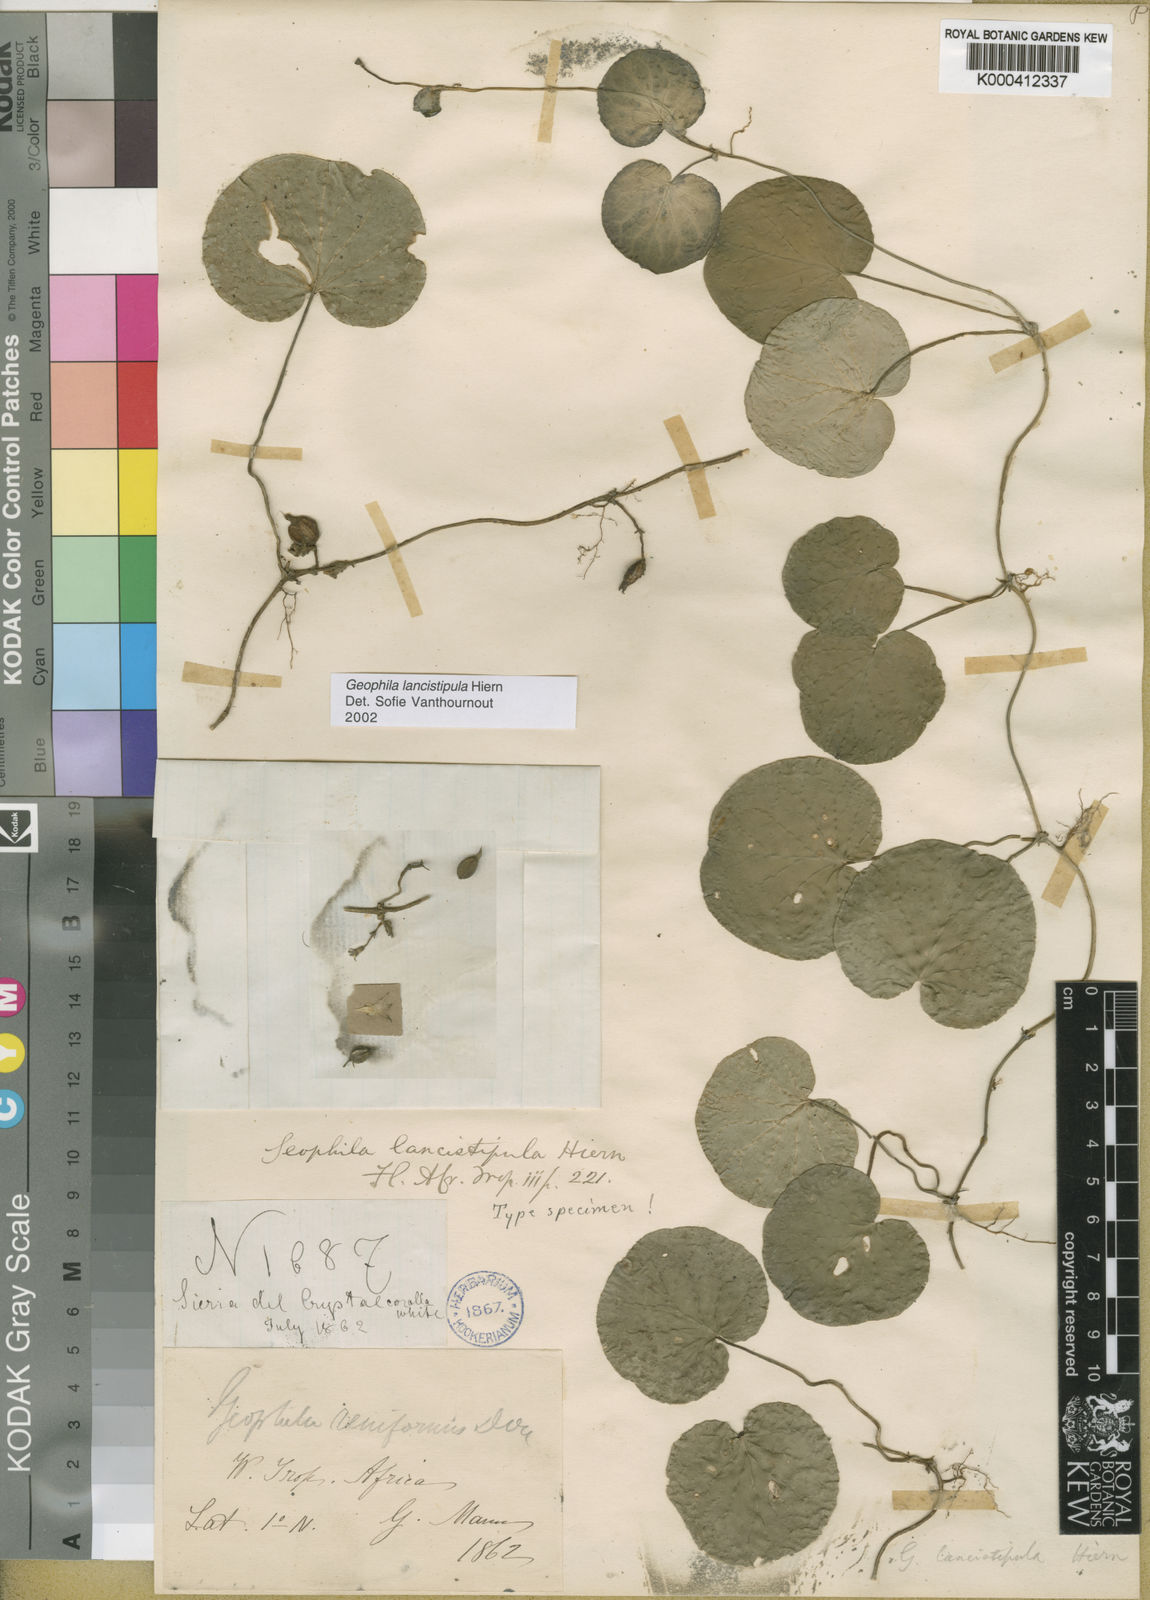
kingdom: Plantae
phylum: Tracheophyta
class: Magnoliopsida
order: Gentianales
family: Rubiaceae
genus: Geophila
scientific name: Geophila lancistipula
